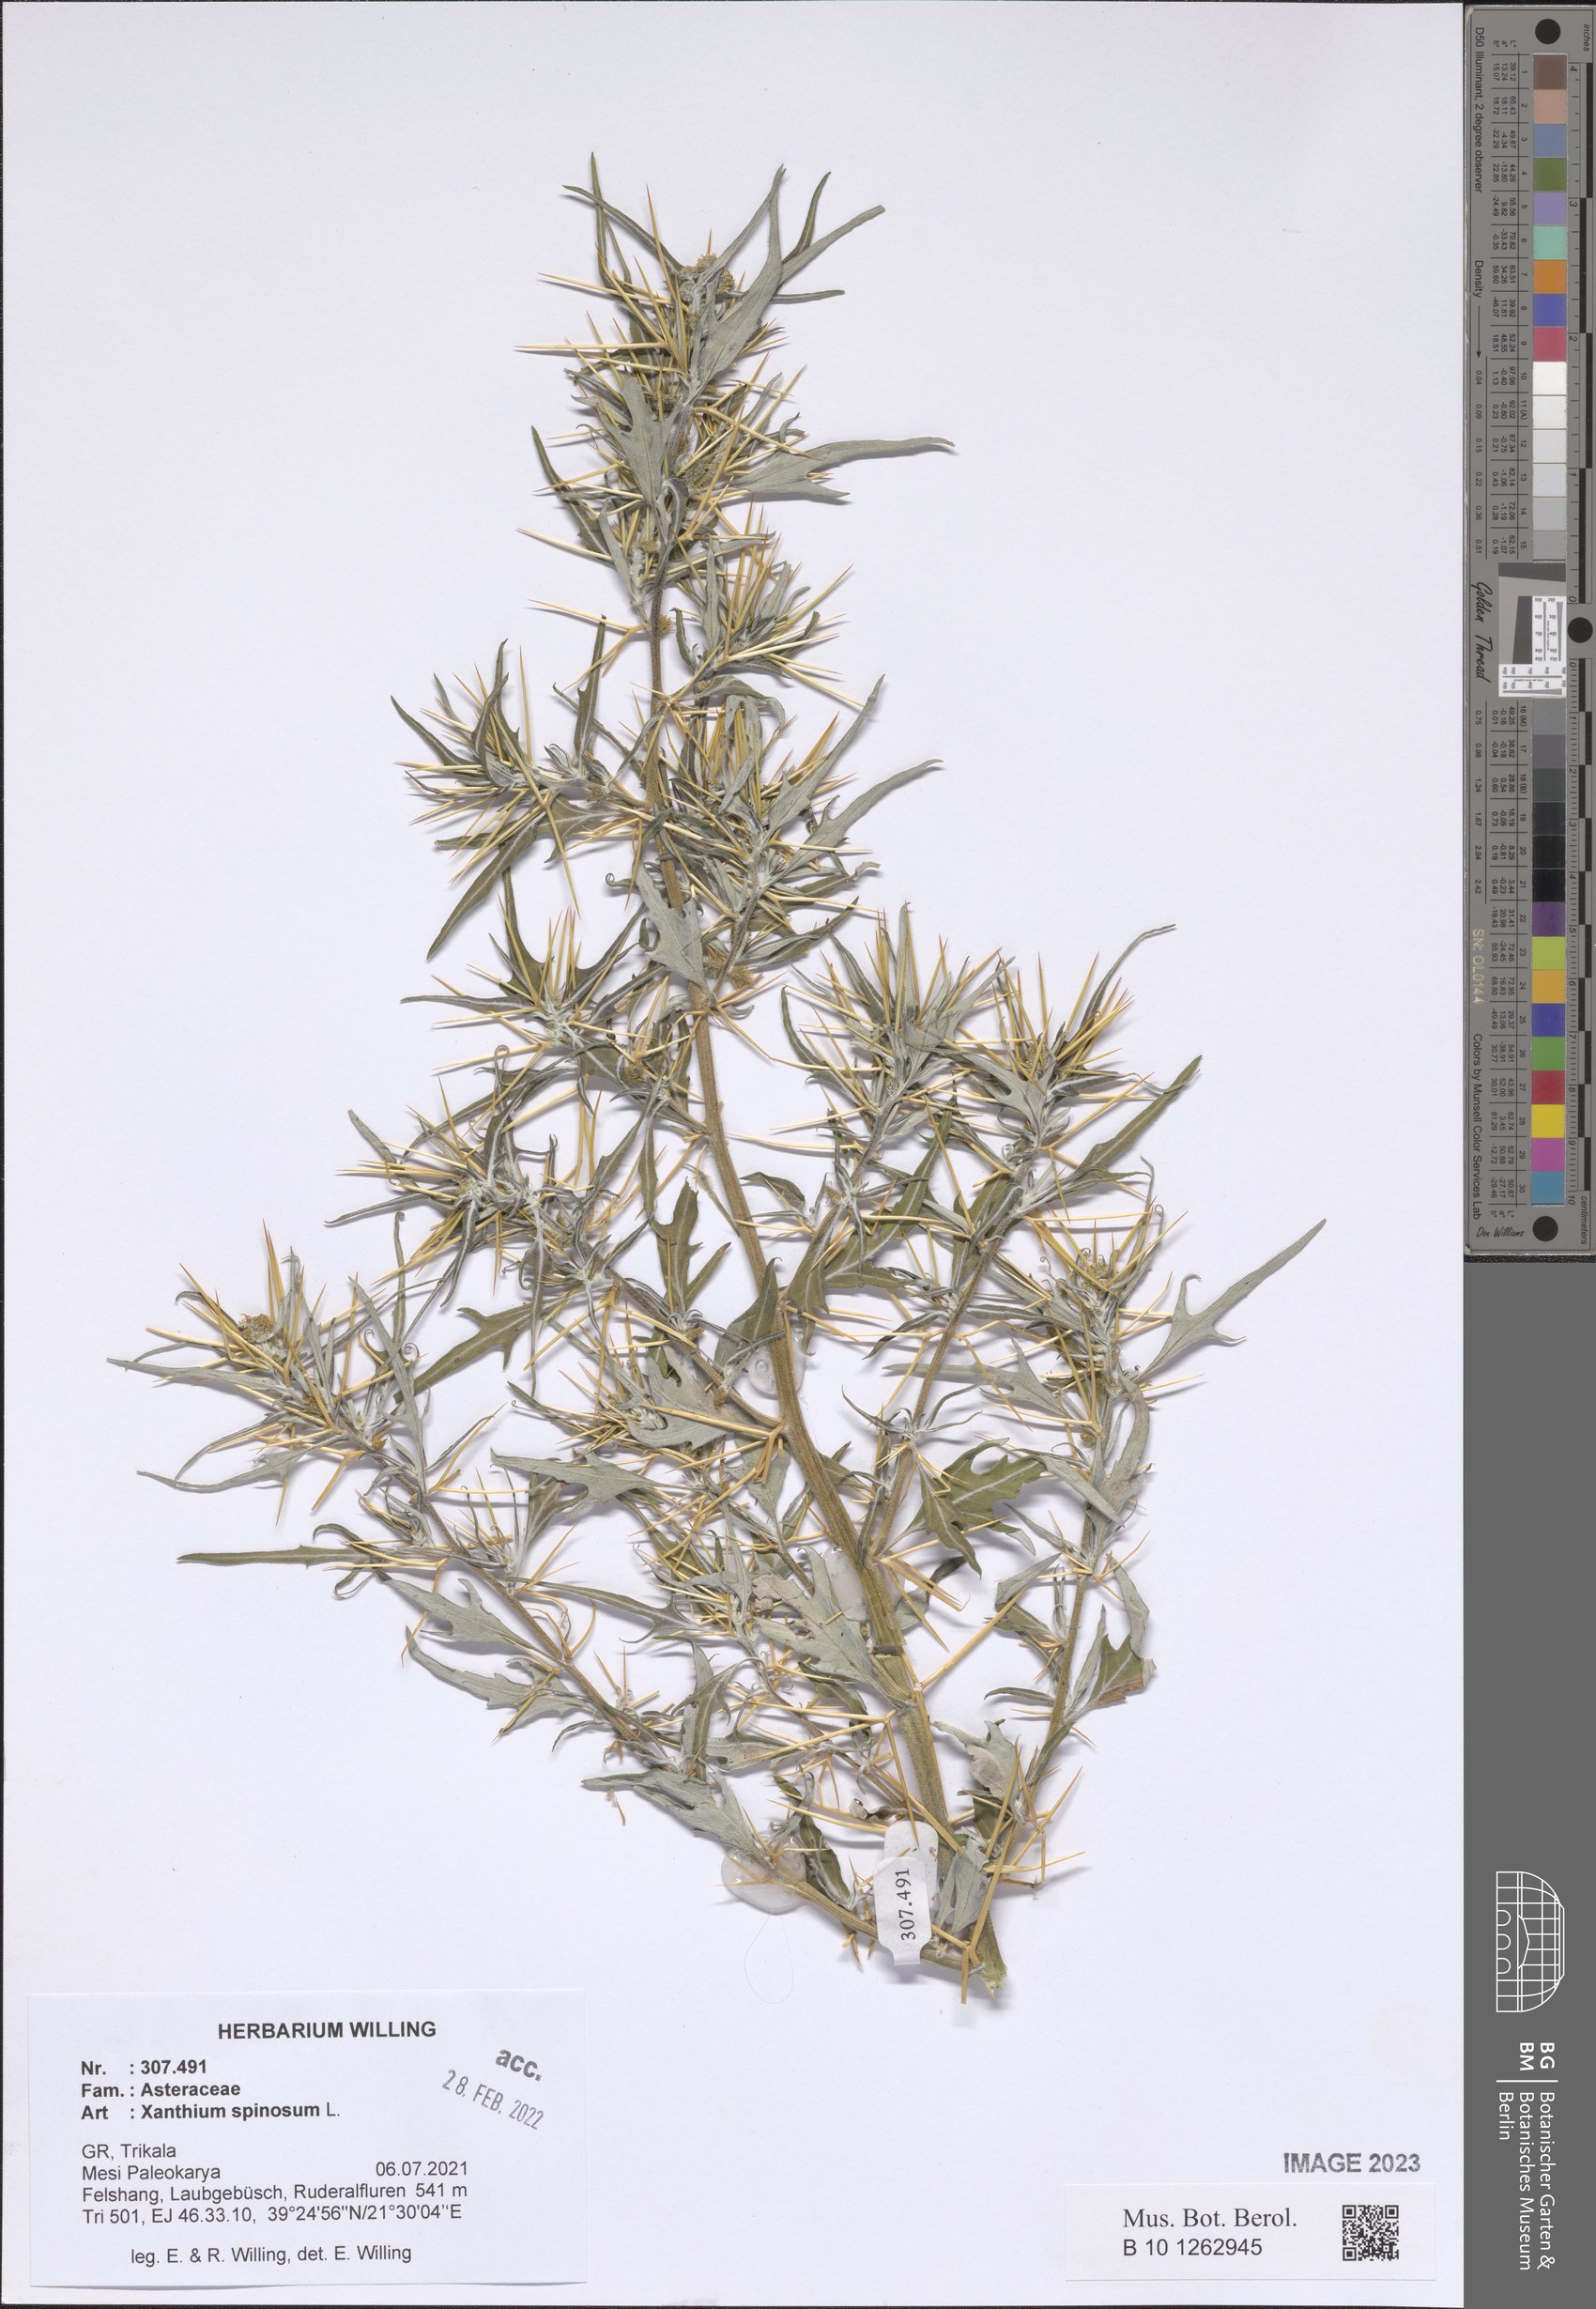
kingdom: Plantae
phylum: Tracheophyta
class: Magnoliopsida
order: Asterales
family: Asteraceae
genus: Xanthium
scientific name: Xanthium spinosum
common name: Spiny cocklebur
